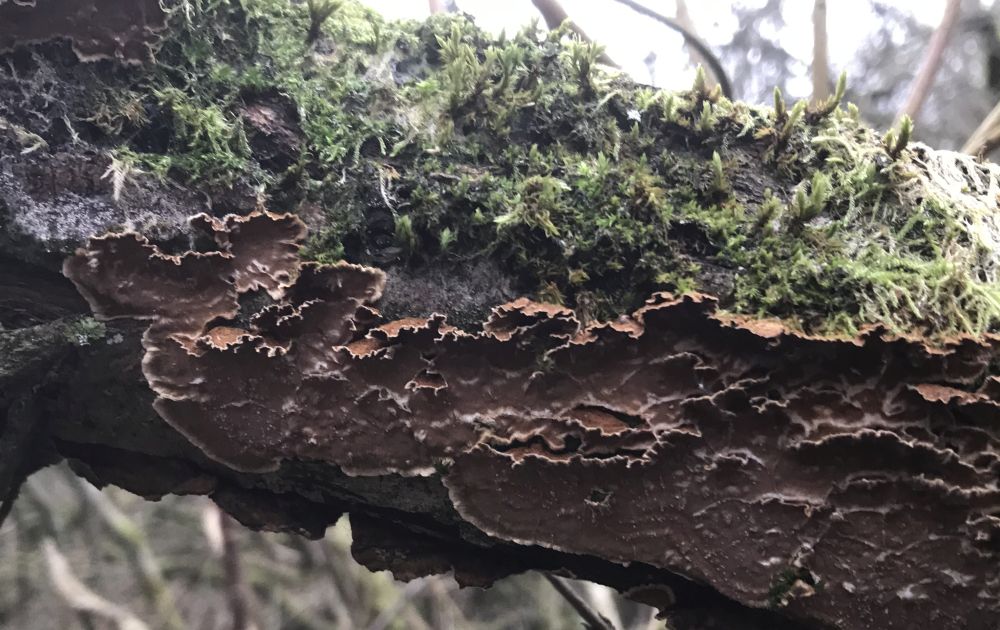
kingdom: Fungi
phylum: Basidiomycota
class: Agaricomycetes
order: Hymenochaetales
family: Hymenochaetaceae
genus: Hydnoporia
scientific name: Hydnoporia tabacina
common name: tobaksbrun ruslædersvamp
